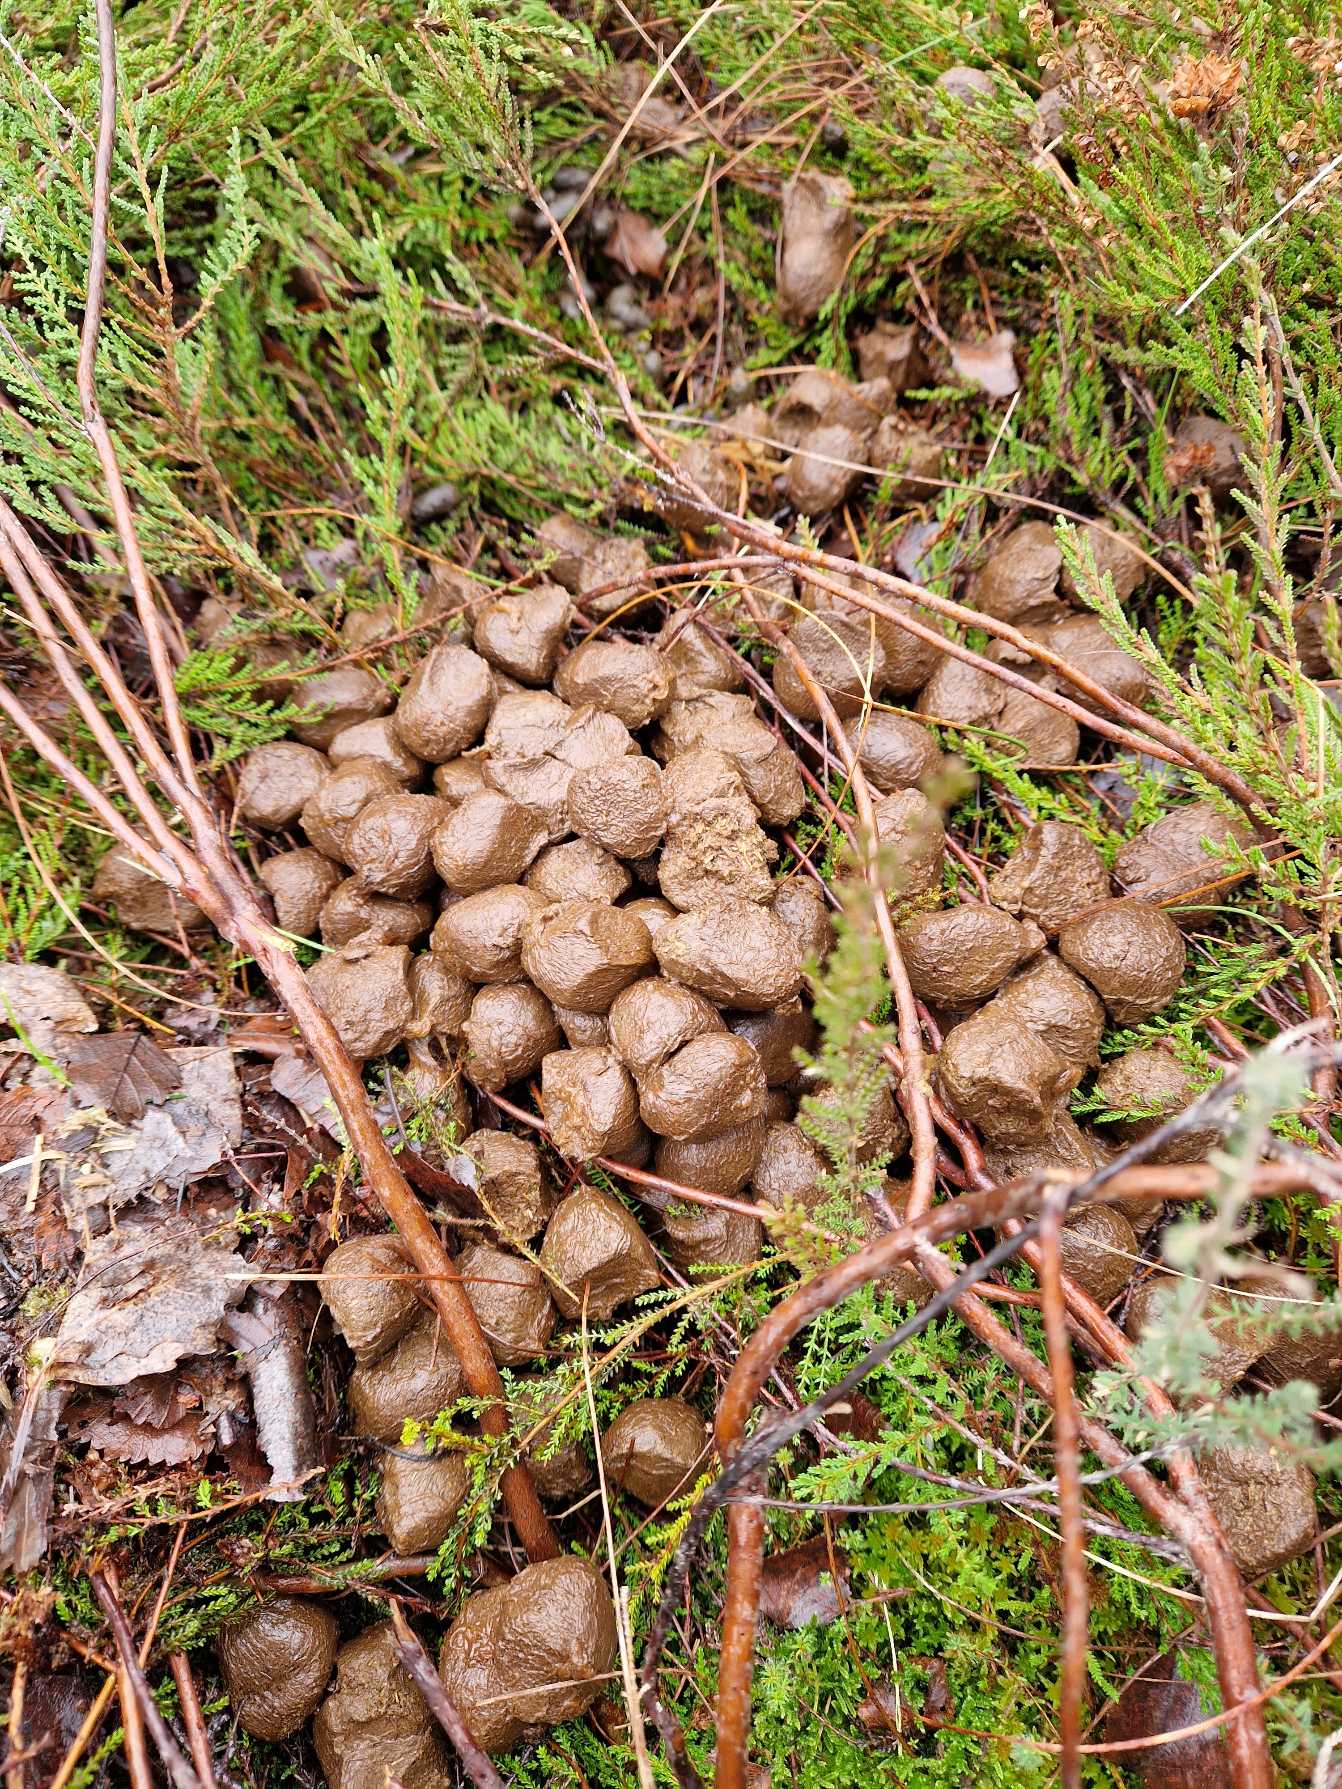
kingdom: Animalia
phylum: Chordata
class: Mammalia
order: Artiodactyla
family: Cervidae
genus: Alces
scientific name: Alces alces
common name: Elg
